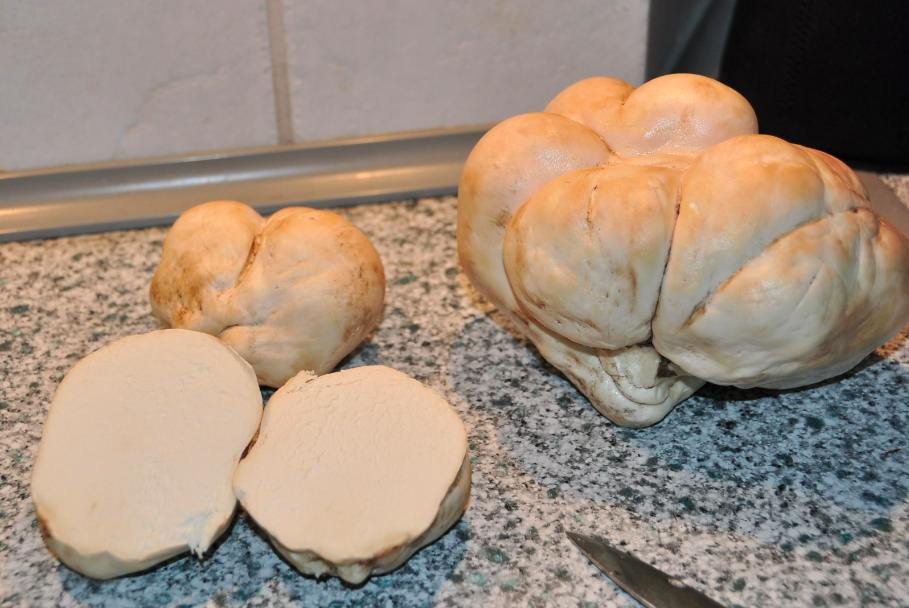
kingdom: Fungi
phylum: Basidiomycota
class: Agaricomycetes
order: Agaricales
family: Lycoperdaceae
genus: Calvatia
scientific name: Calvatia gigantea
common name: kæmpestøvbold
